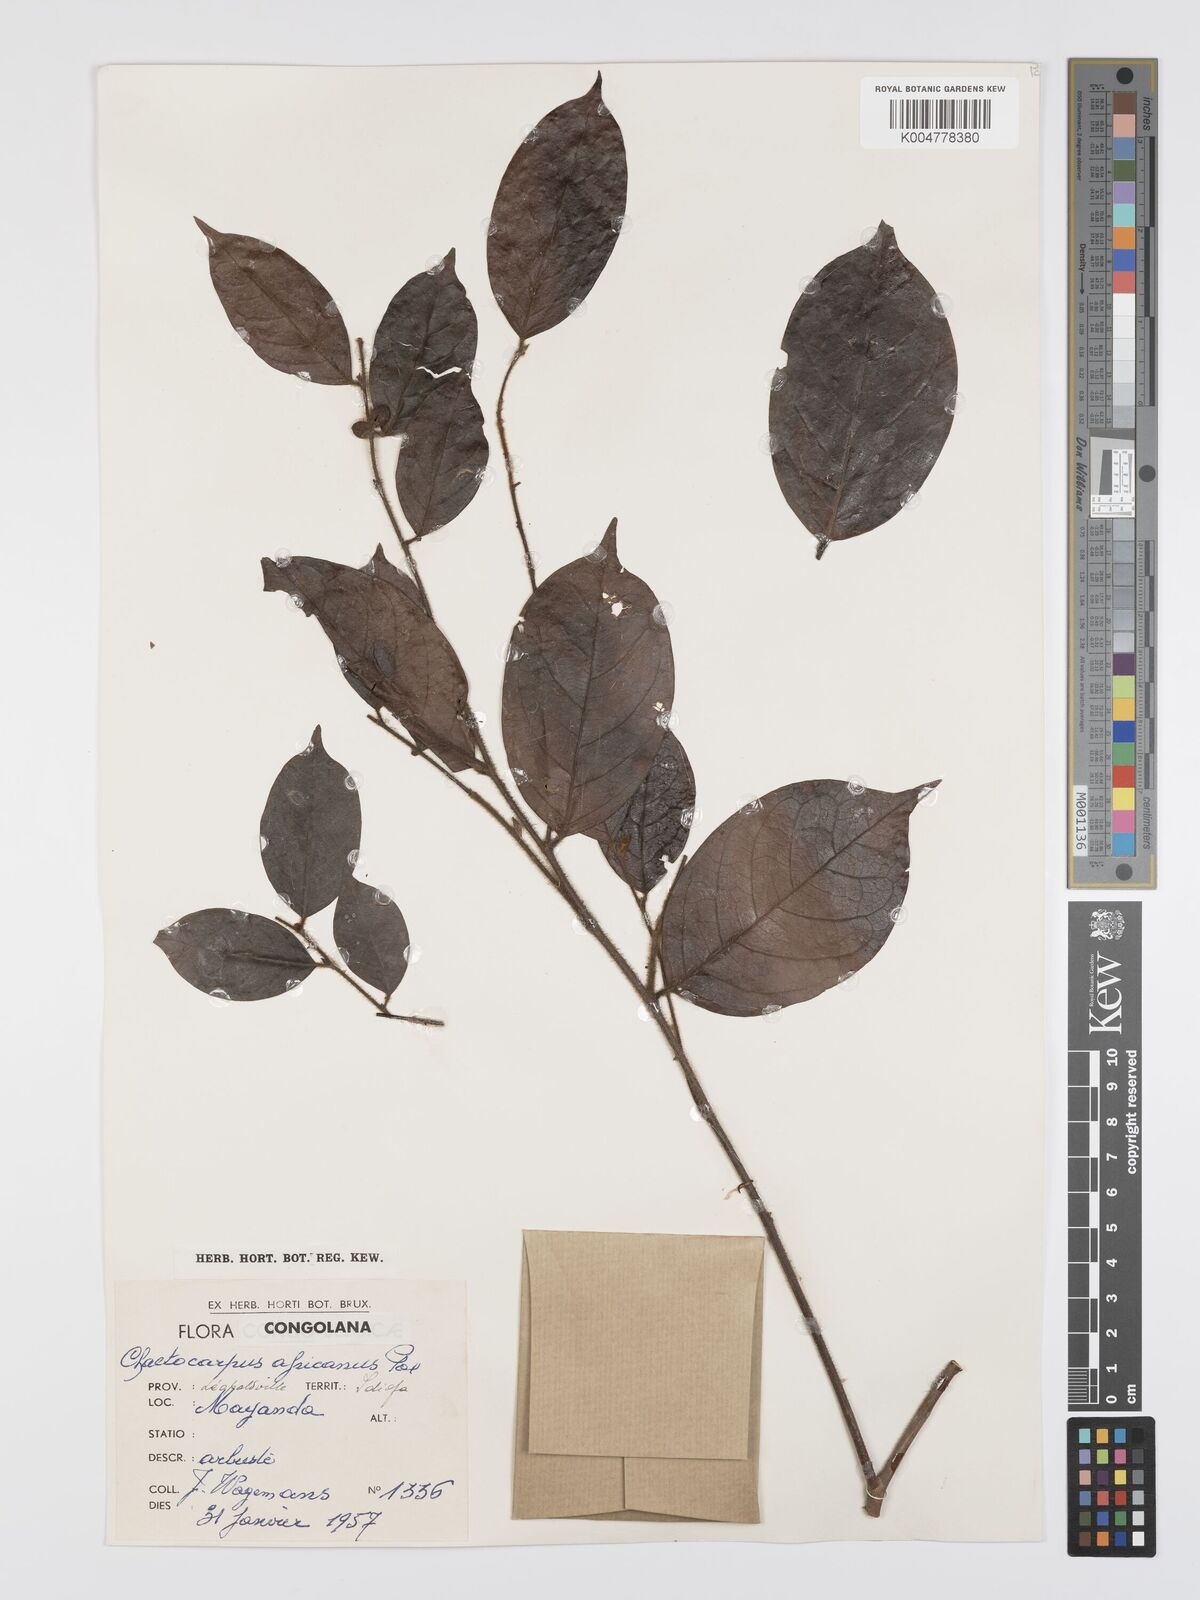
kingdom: Plantae
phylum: Tracheophyta
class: Magnoliopsida
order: Malpighiales
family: Peraceae
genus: Chaetocarpus
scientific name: Chaetocarpus africanus
